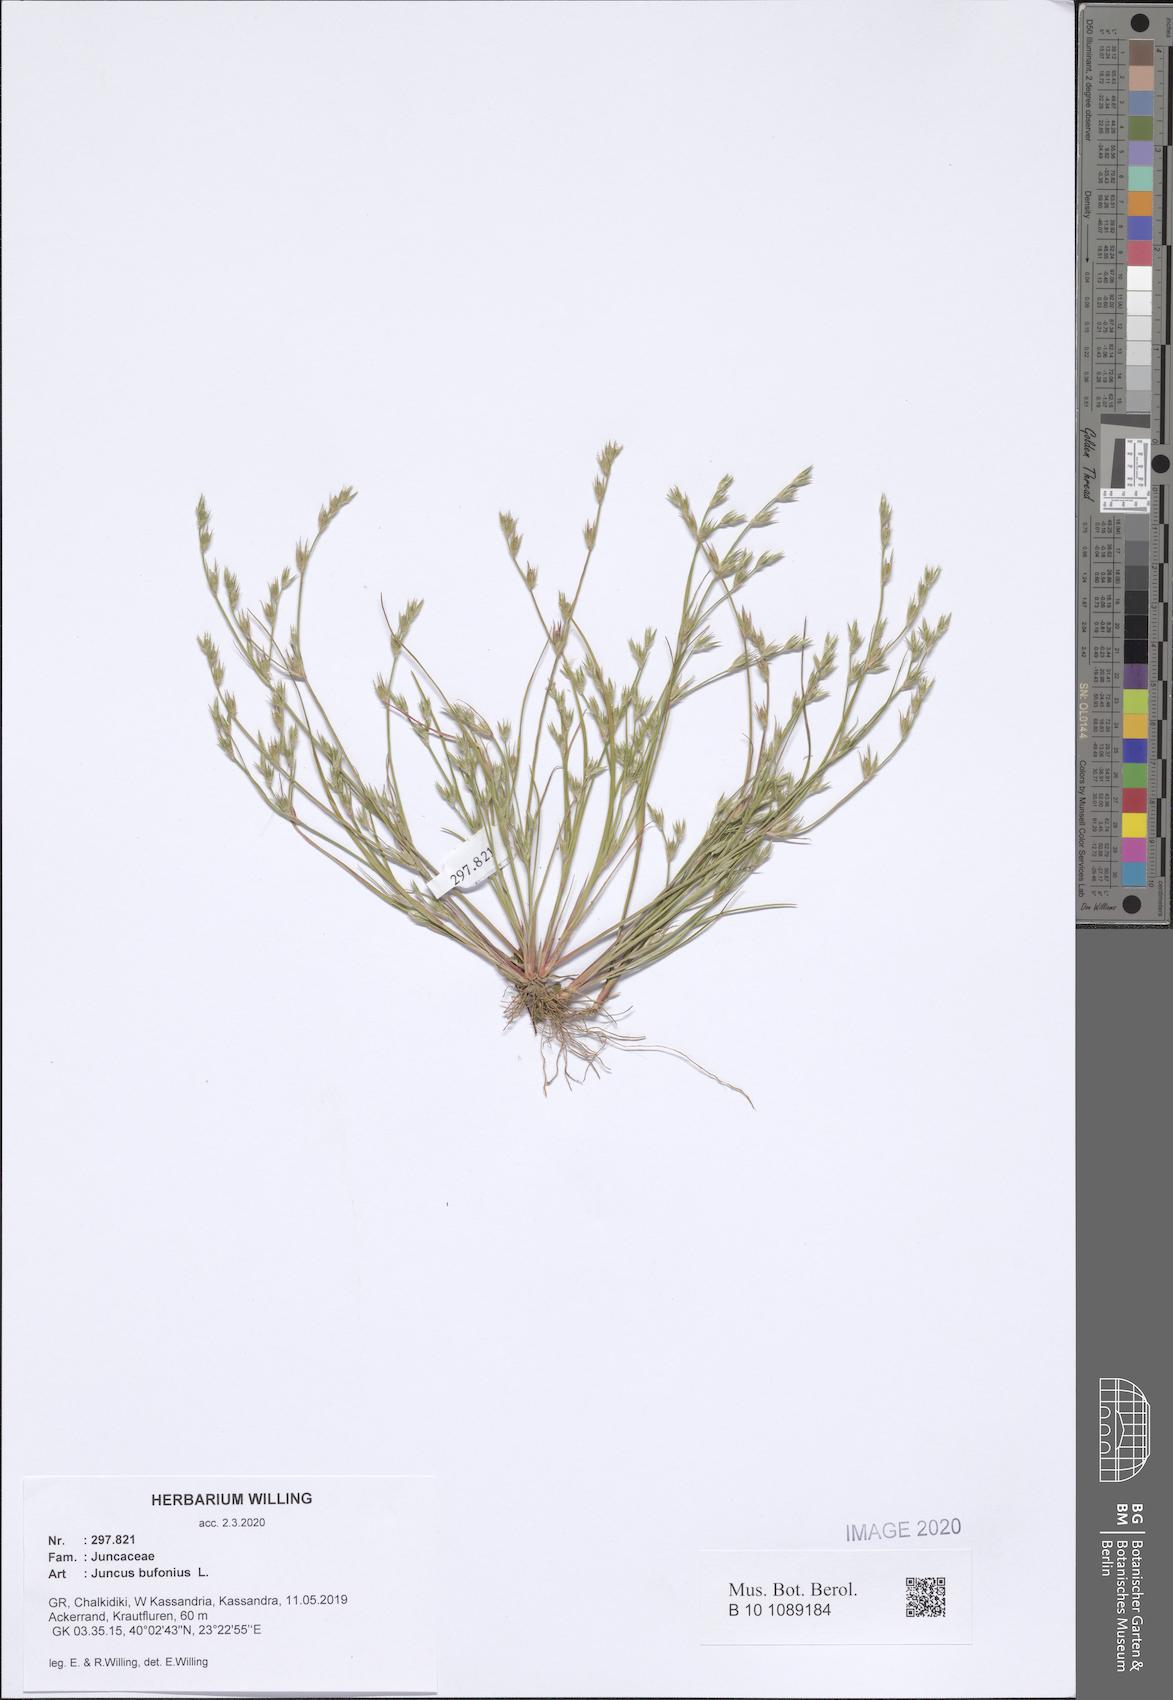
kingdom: Plantae
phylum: Tracheophyta
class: Liliopsida
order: Poales
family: Juncaceae
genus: Juncus
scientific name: Juncus bufonius
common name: Toad rush
